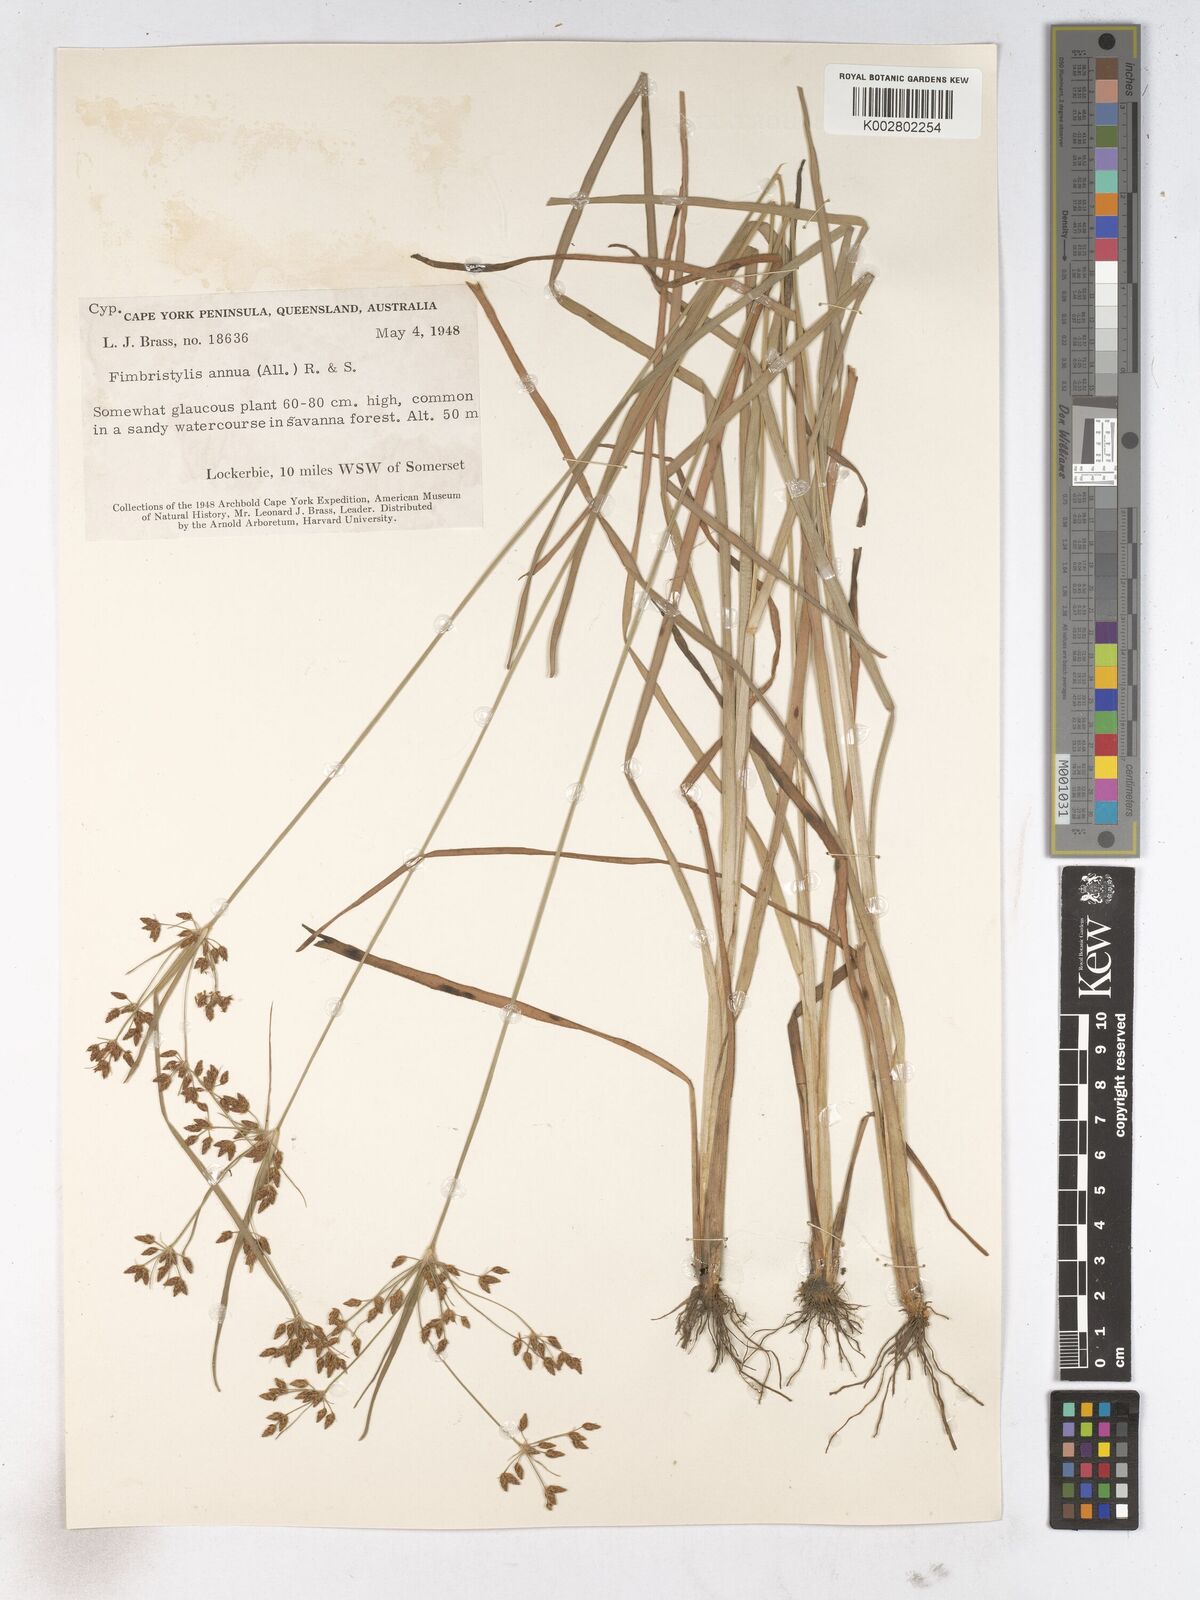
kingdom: Plantae
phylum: Tracheophyta
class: Liliopsida
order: Poales
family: Cyperaceae
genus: Fimbristylis
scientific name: Fimbristylis dichotoma
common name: Forked fimbry
